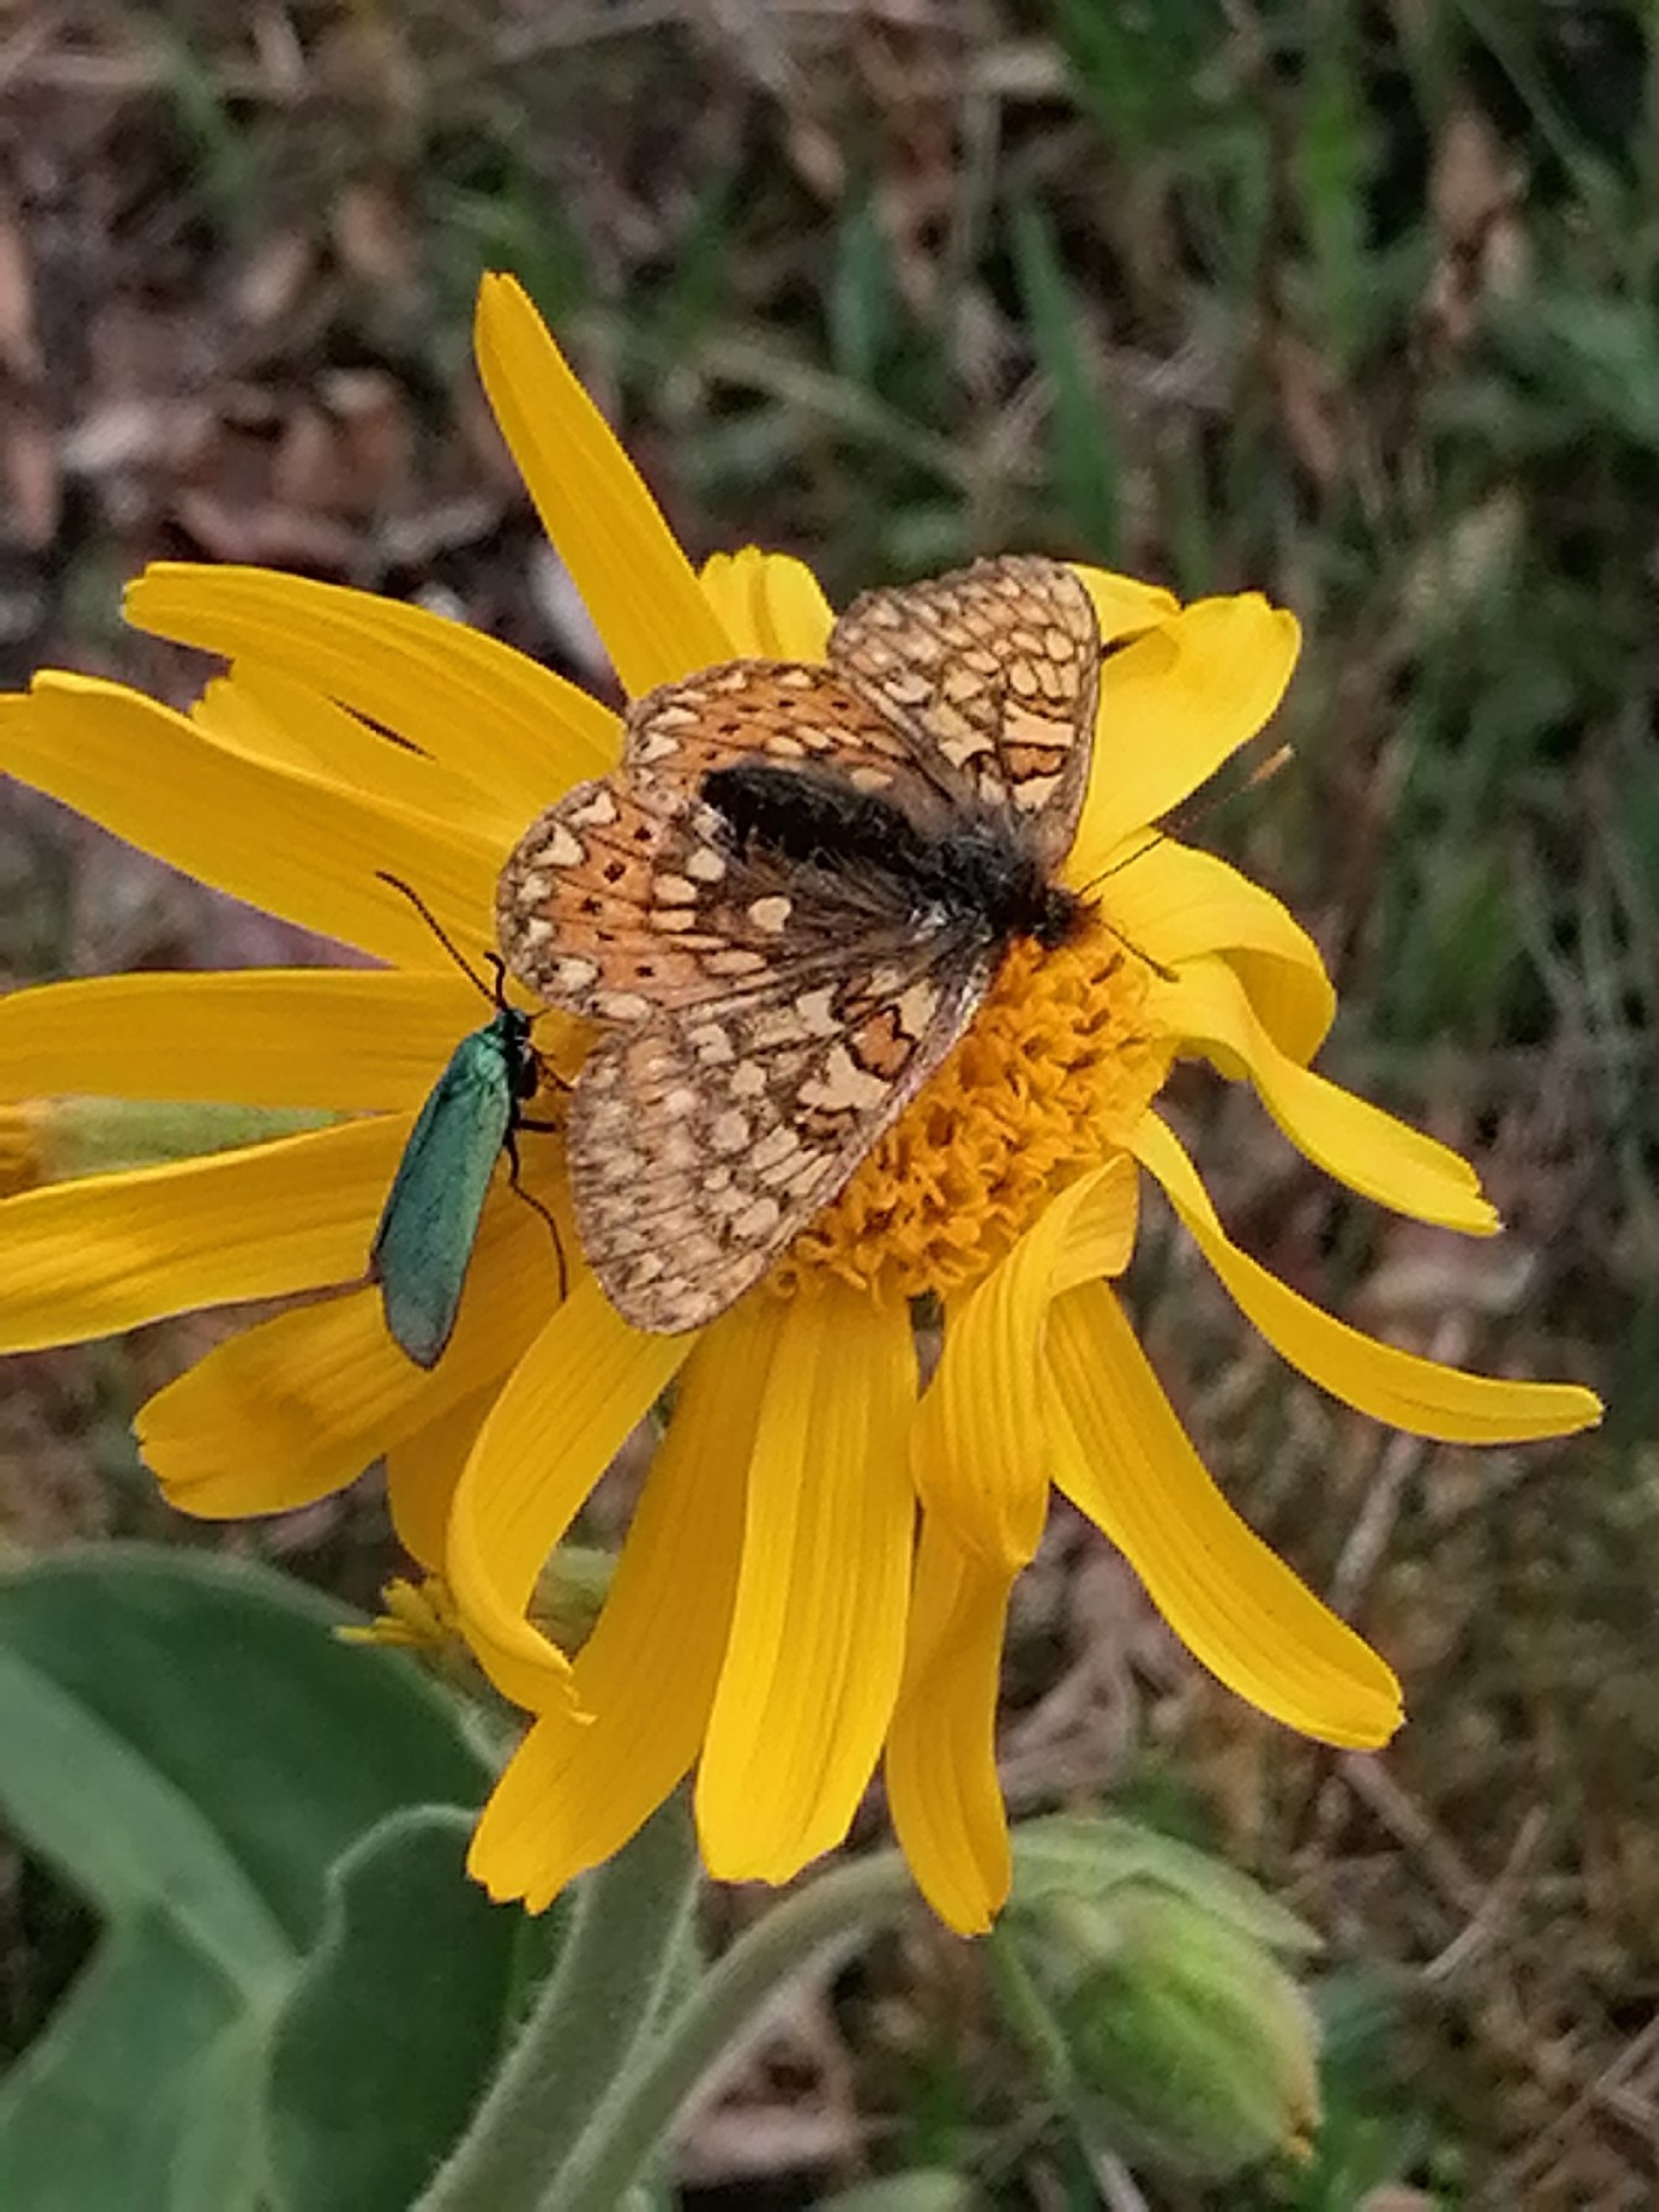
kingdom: Animalia
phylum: Arthropoda
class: Insecta
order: Lepidoptera
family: Nymphalidae
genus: Euphydryas
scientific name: Euphydryas aurinia
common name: Hedepletvinge
